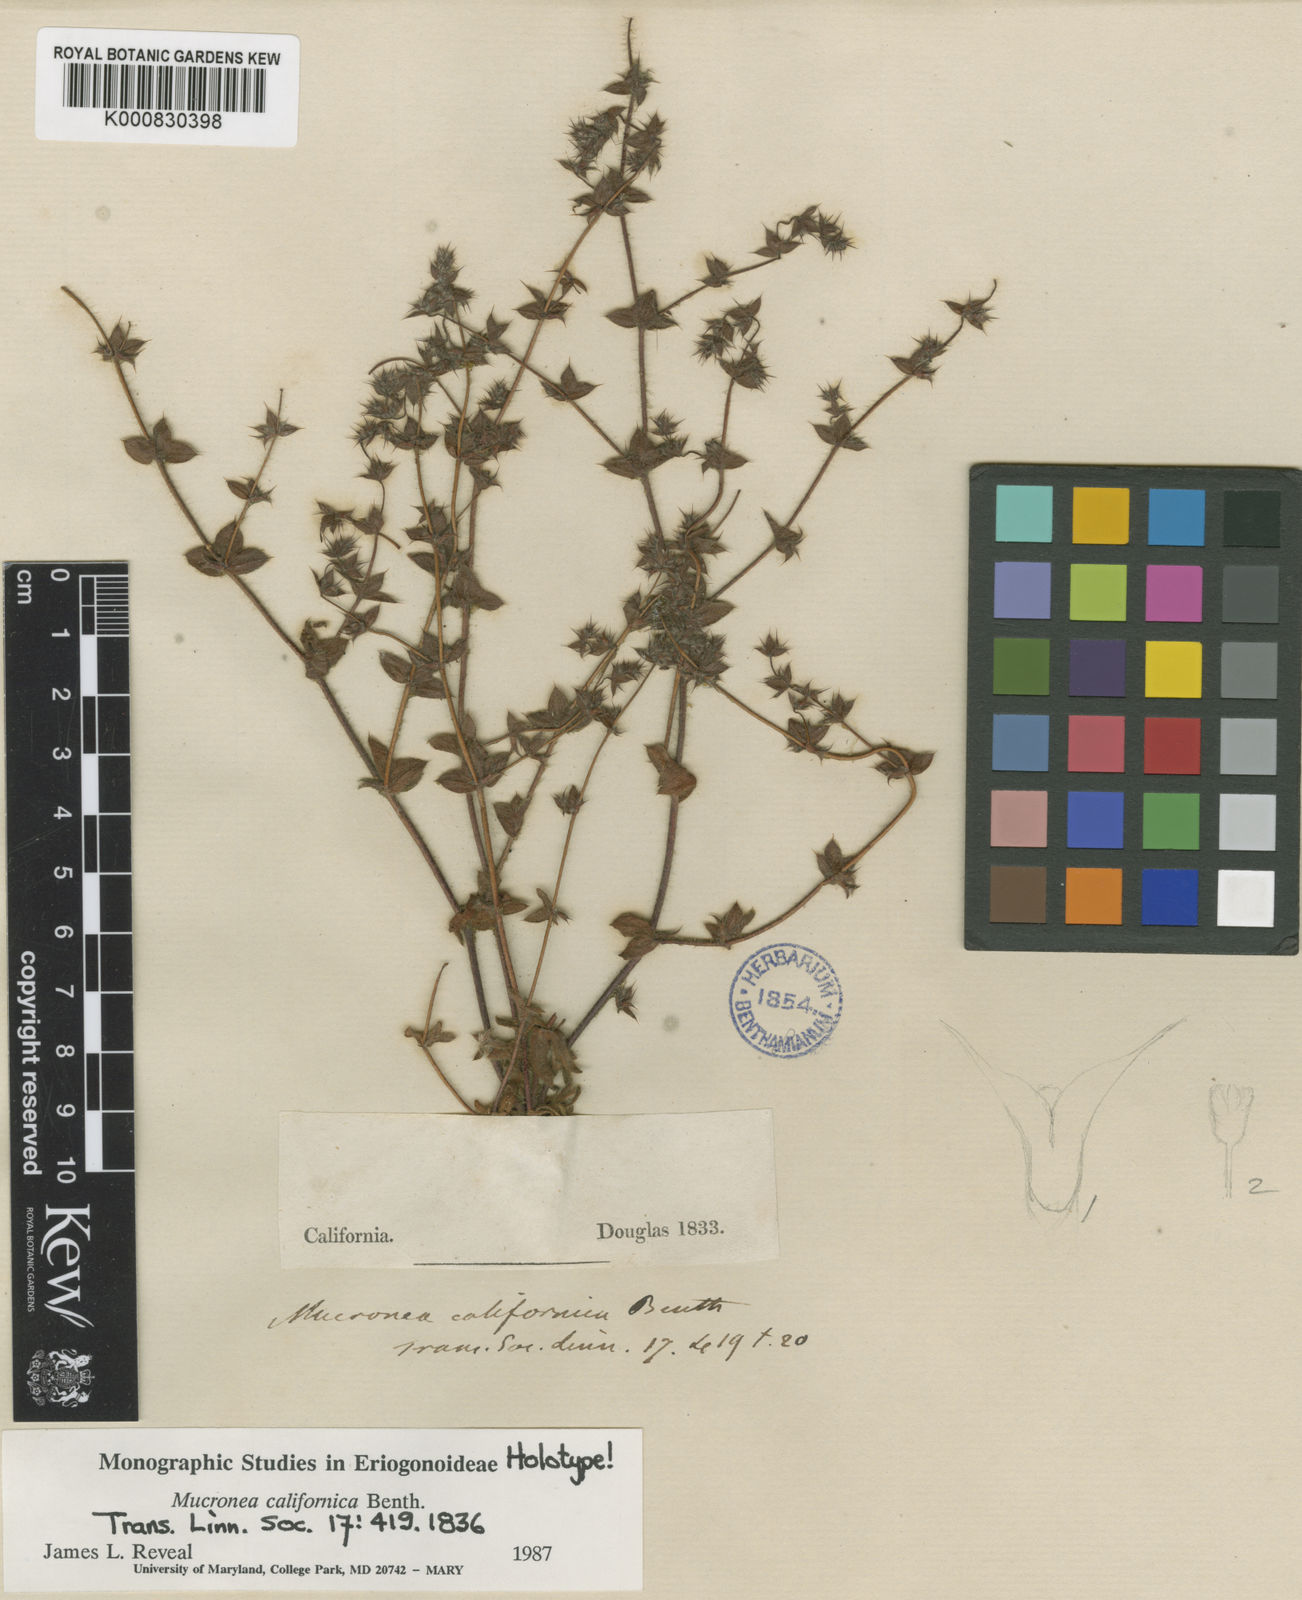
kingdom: Plantae
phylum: Tracheophyta
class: Magnoliopsida
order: Caryophyllales
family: Polygonaceae
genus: Mucronea
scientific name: Mucronea californica
